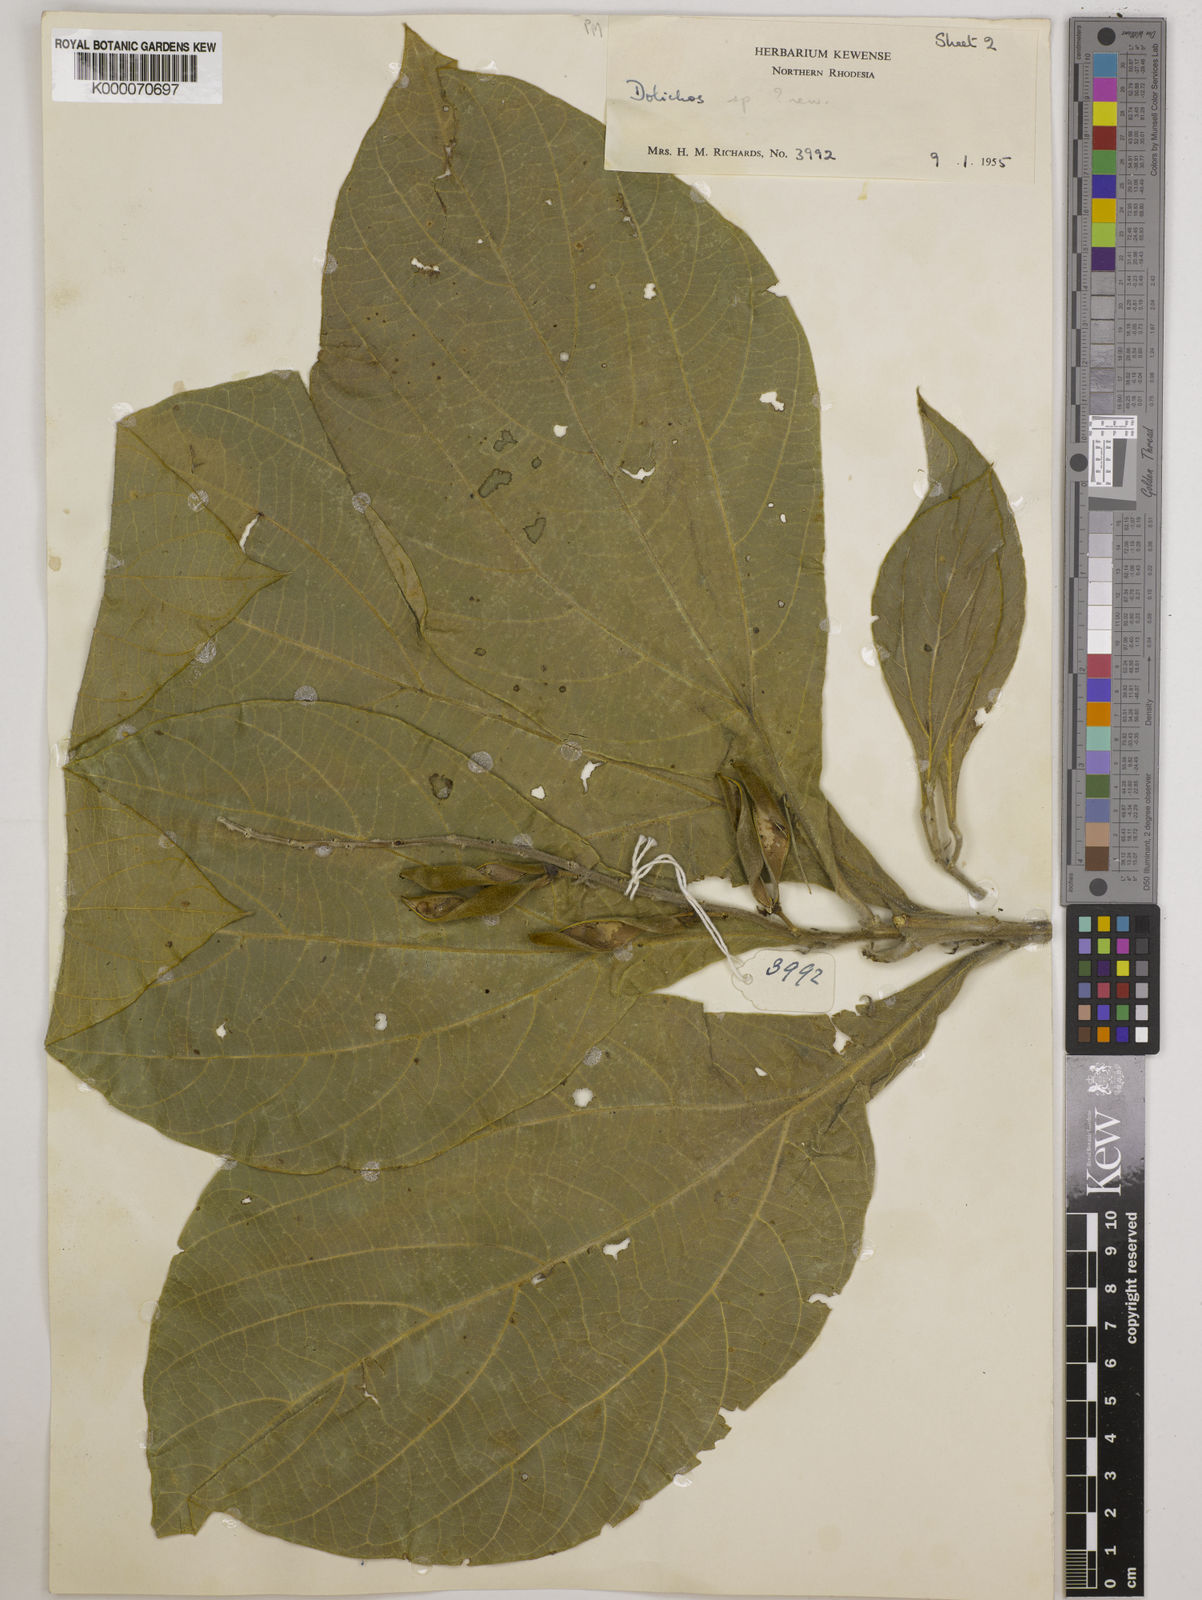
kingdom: Plantae
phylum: Tracheophyta
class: Magnoliopsida
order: Fabales
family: Fabaceae
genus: Dolichos
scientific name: Dolichos ichthyophone
